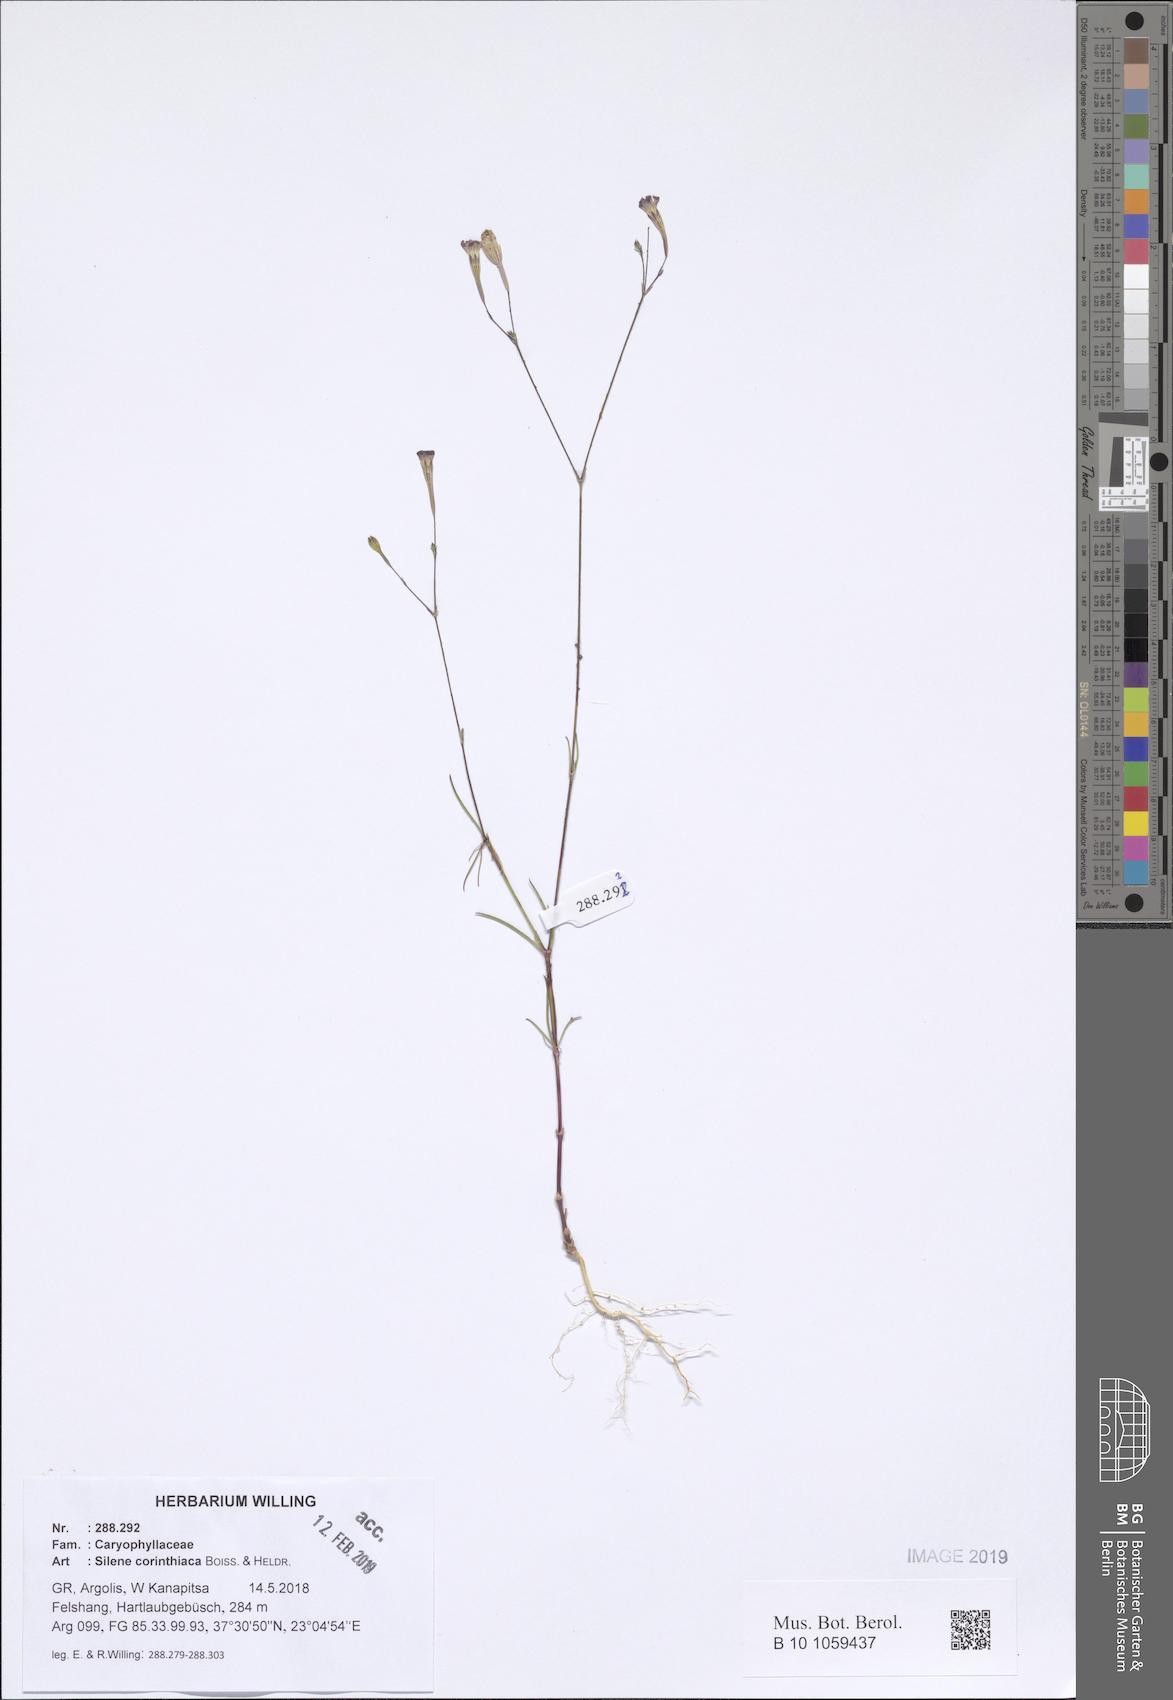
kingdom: Plantae
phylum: Tracheophyta
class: Magnoliopsida
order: Caryophyllales
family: Caryophyllaceae
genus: Silene
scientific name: Silene corinthiaca
